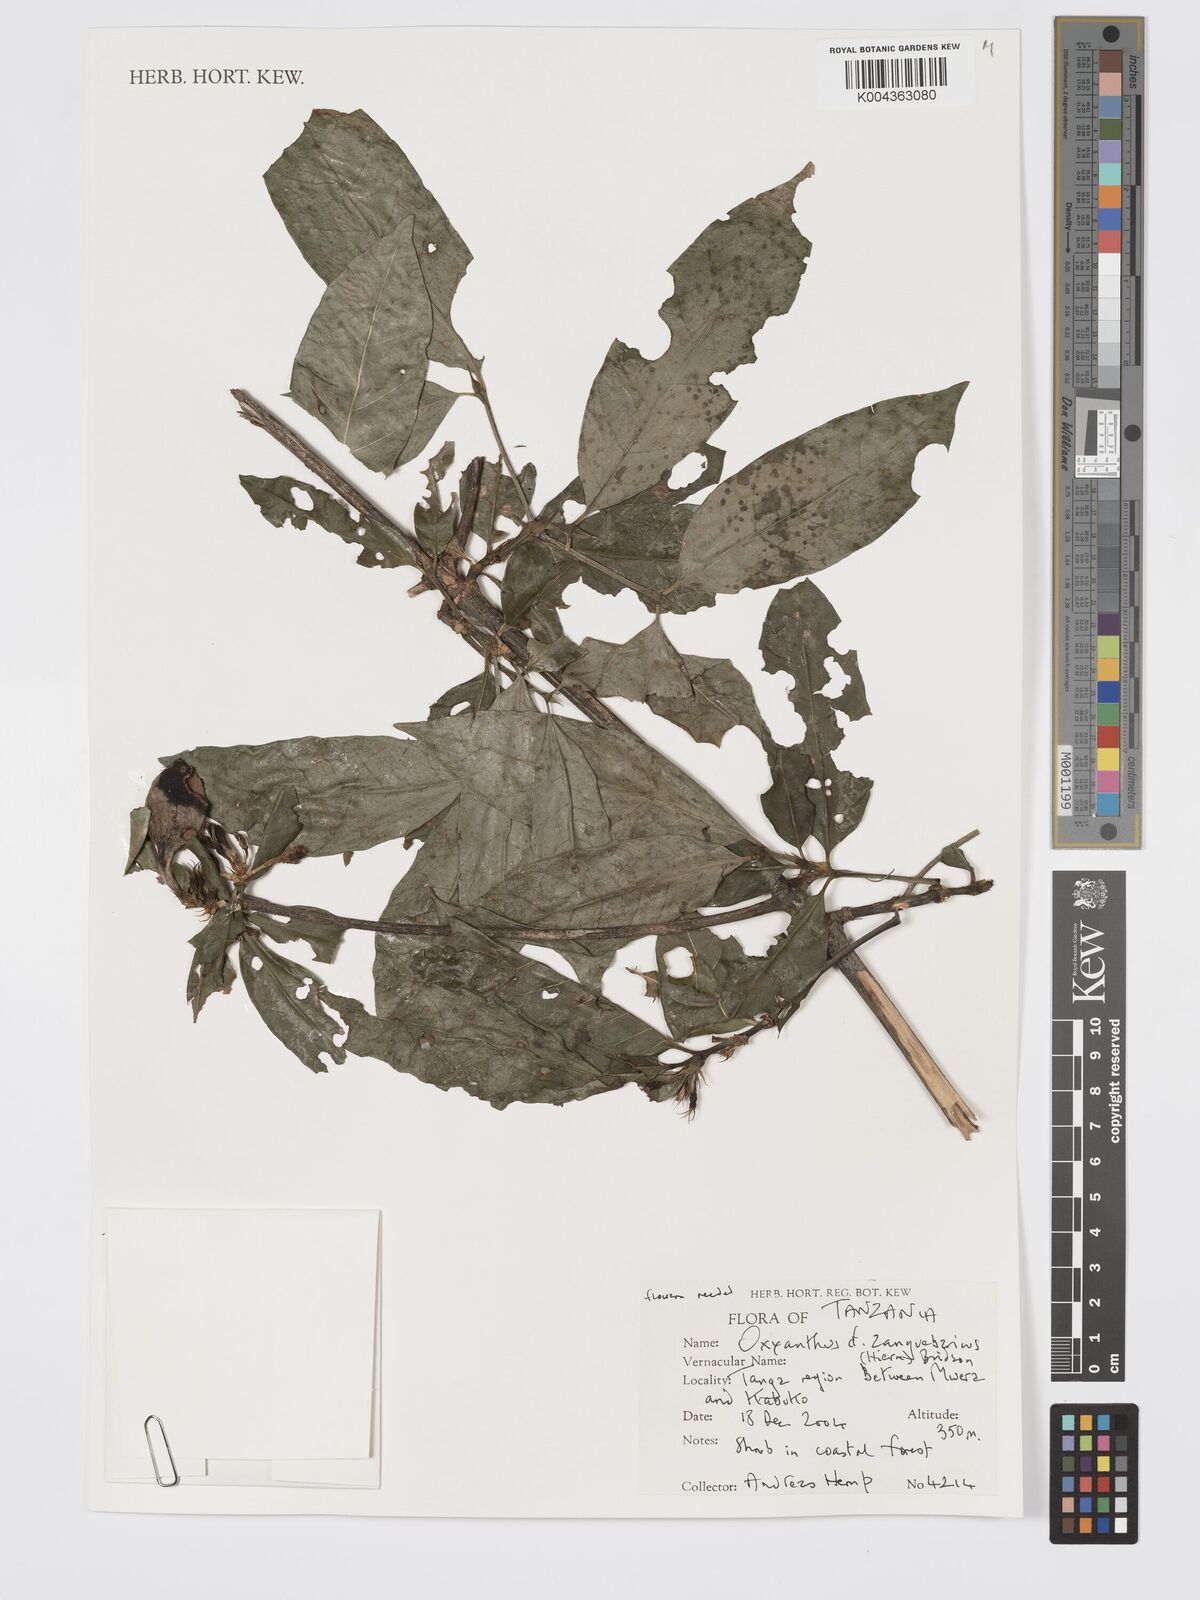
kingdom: Plantae
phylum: Tracheophyta
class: Magnoliopsida
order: Gentianales
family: Rubiaceae
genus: Oxyanthus
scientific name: Oxyanthus zanguebaricus
